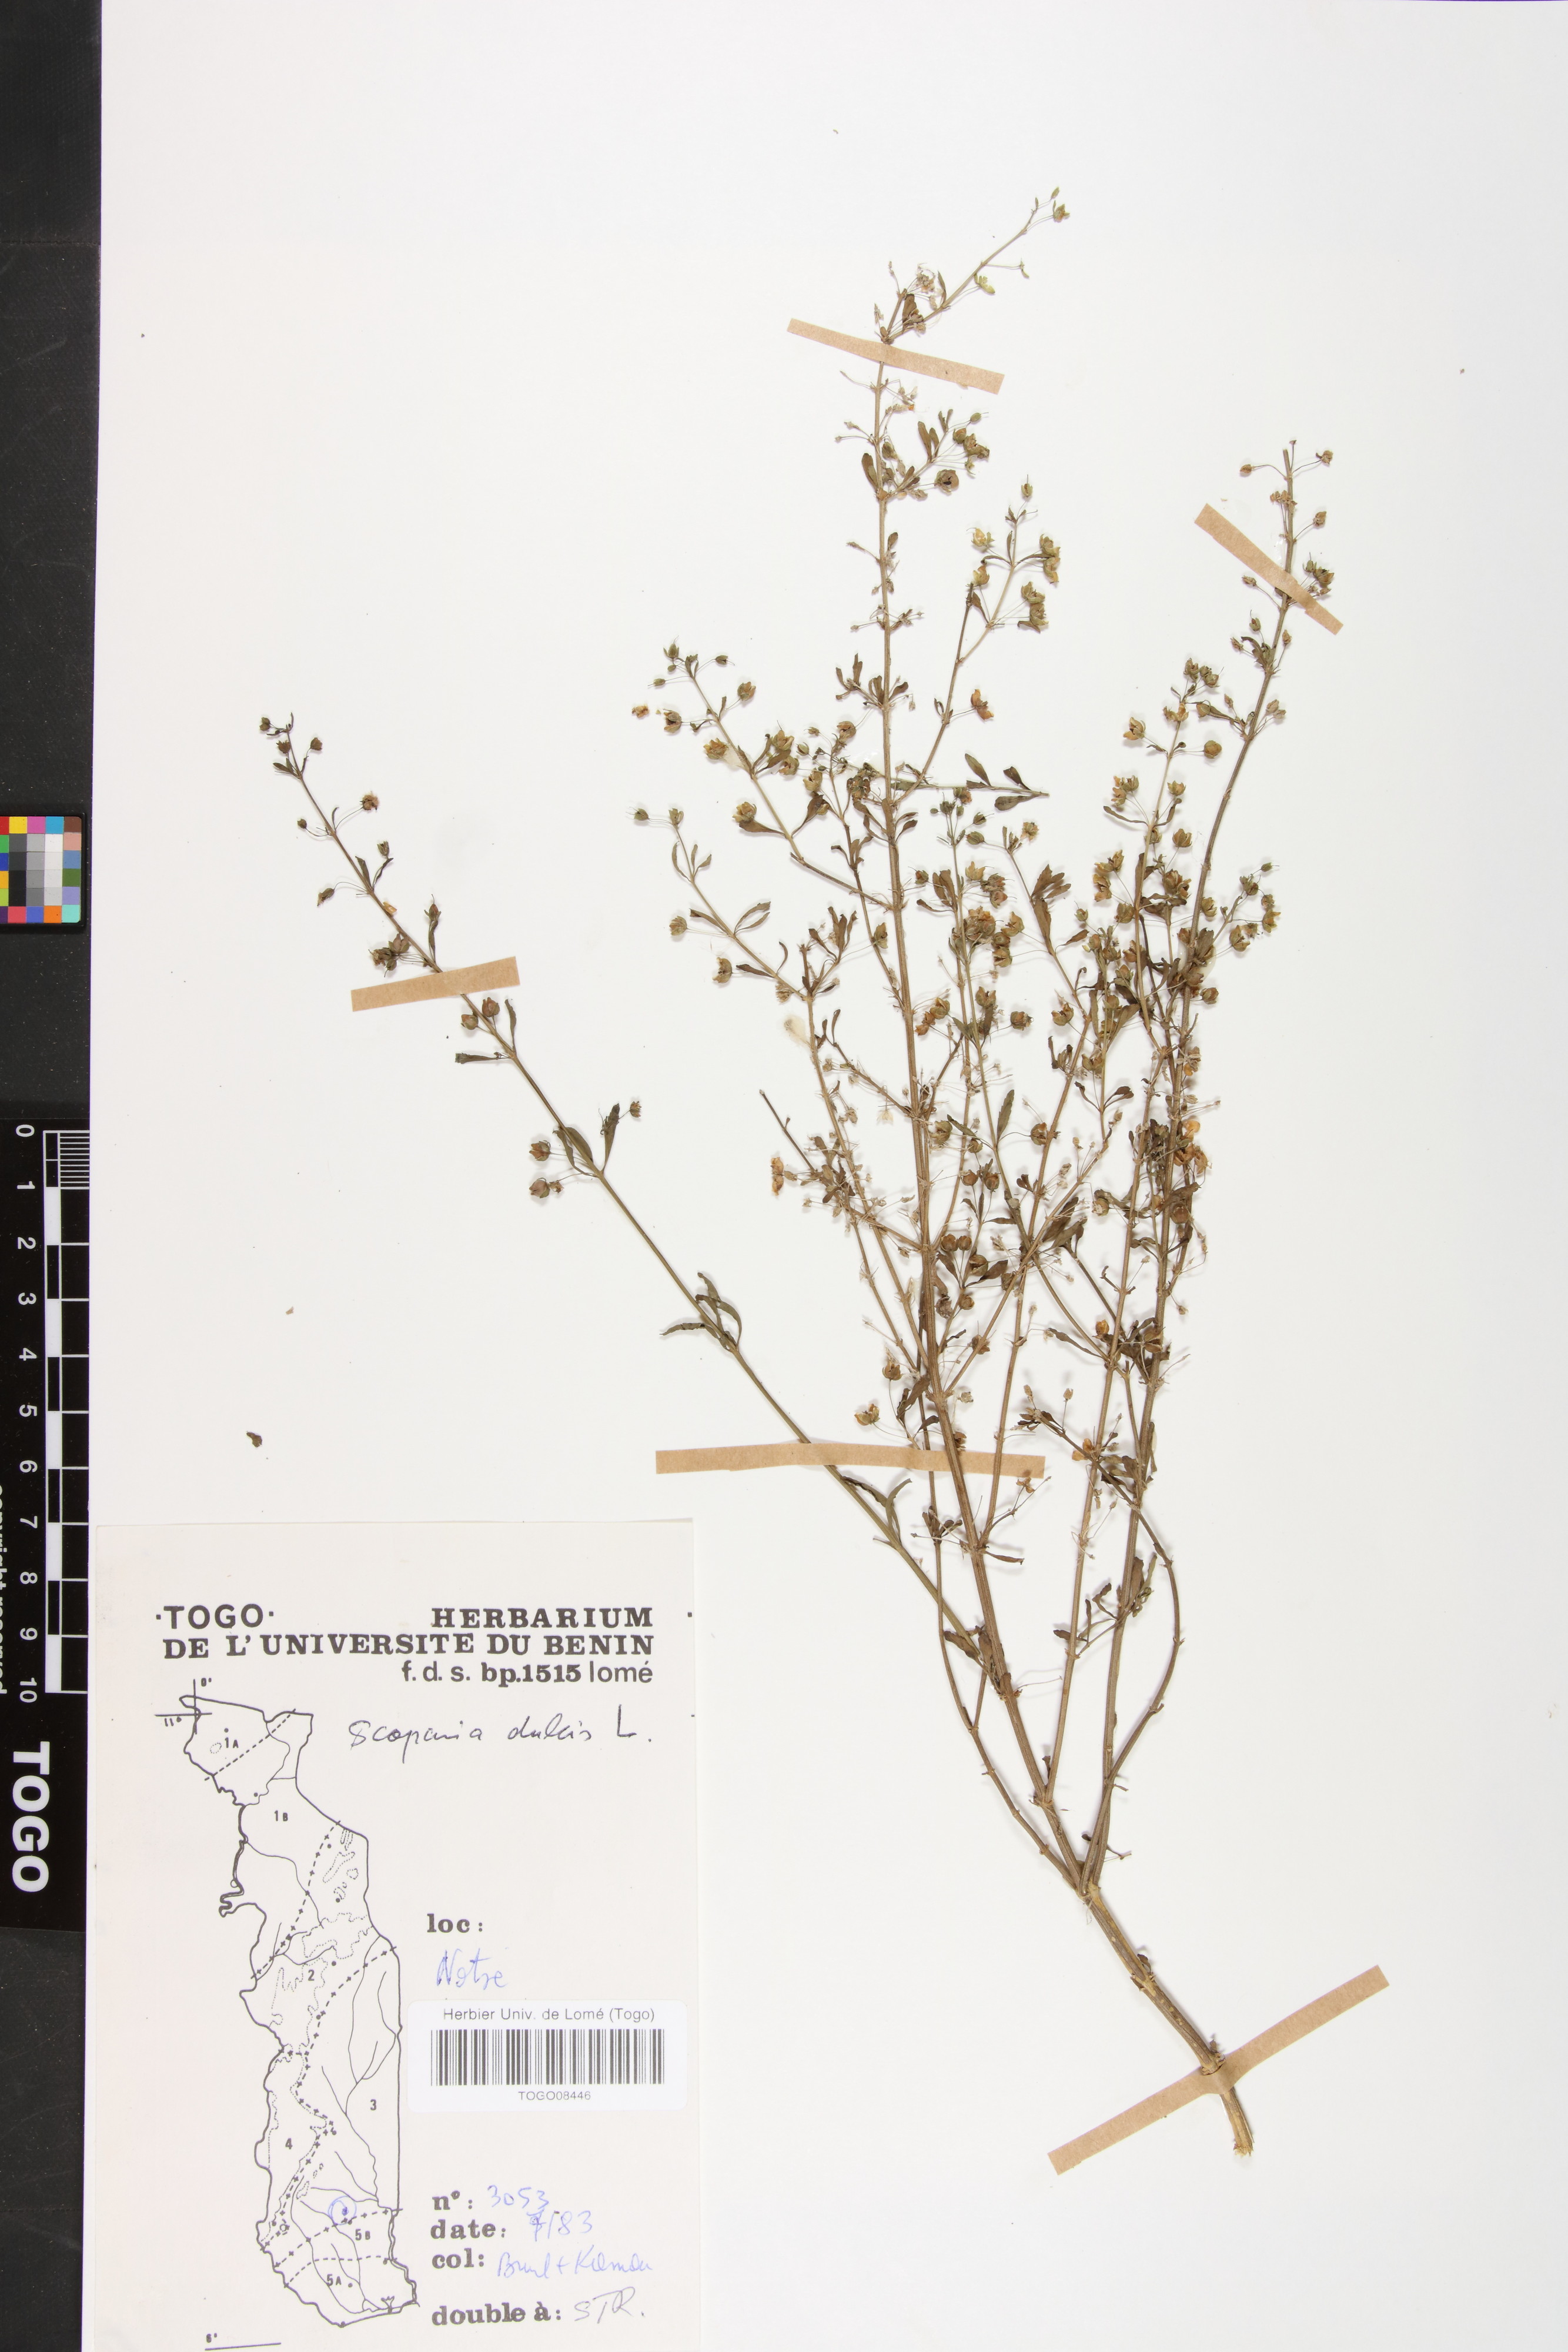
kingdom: Plantae
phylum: Tracheophyta
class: Magnoliopsida
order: Lamiales
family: Plantaginaceae
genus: Scoparia
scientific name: Scoparia dulcis
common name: Scoparia-weed
